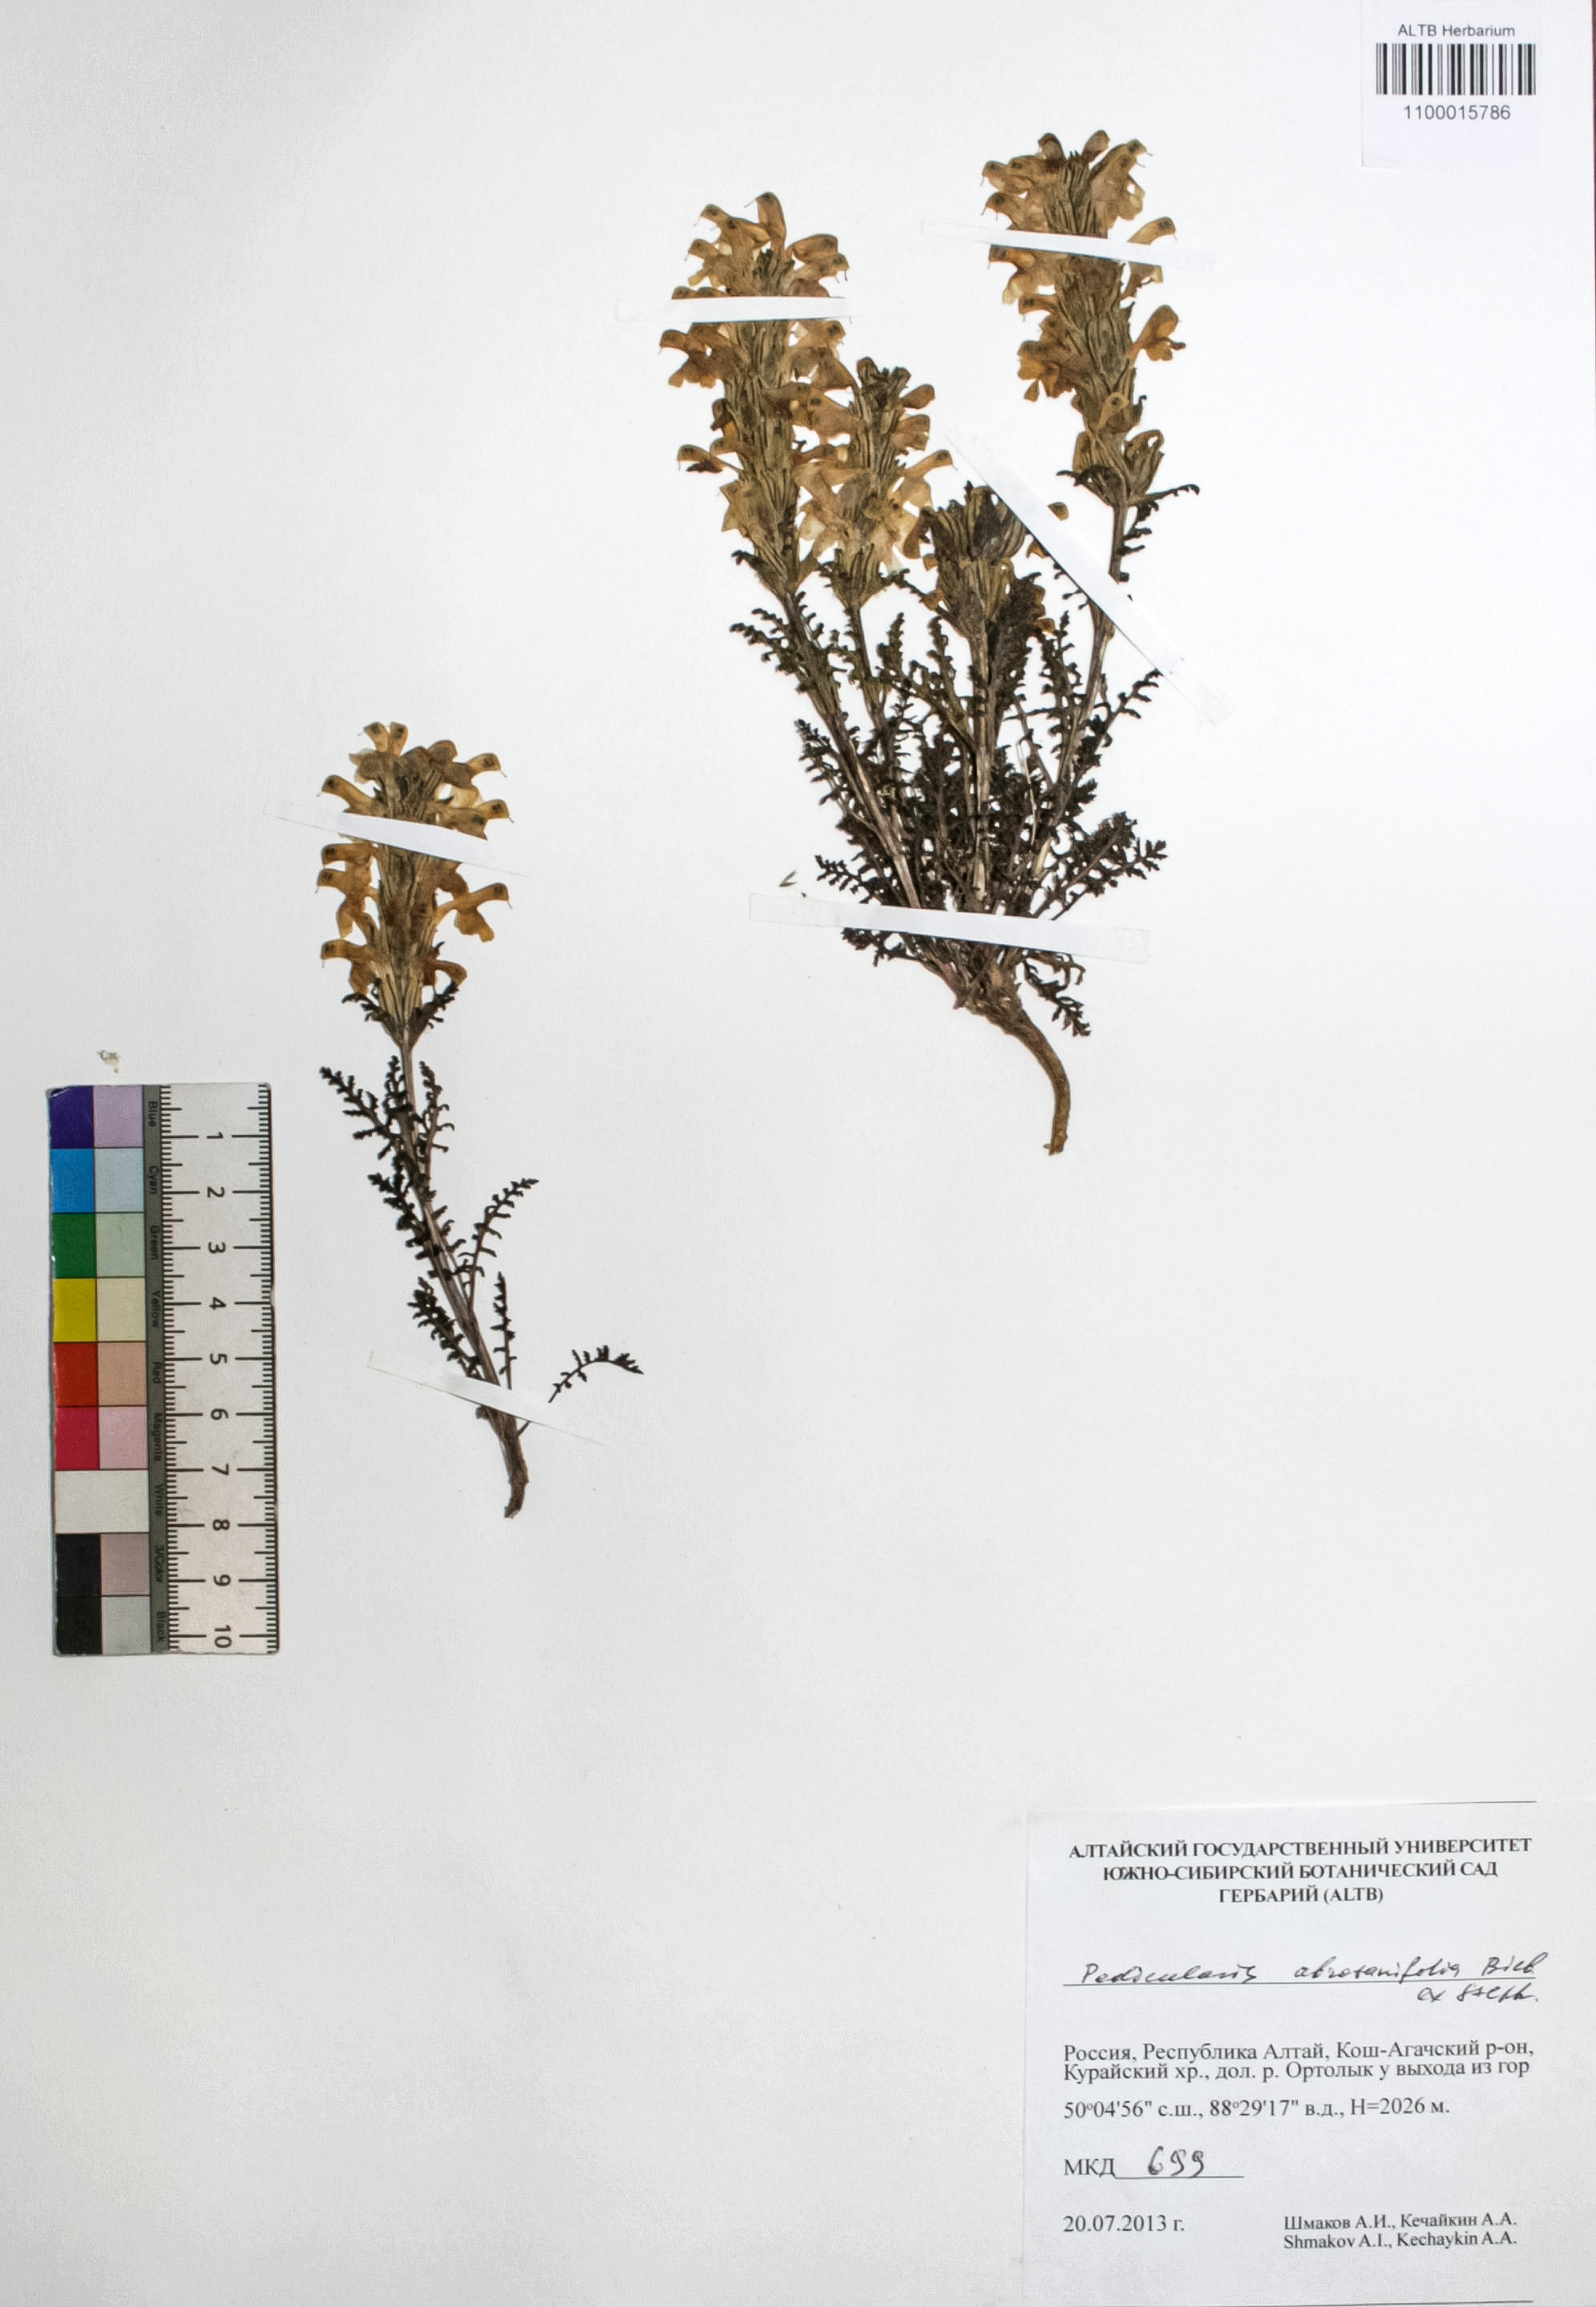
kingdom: Plantae
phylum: Tracheophyta
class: Magnoliopsida
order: Lamiales
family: Orobanchaceae
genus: Pedicularis
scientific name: Pedicularis abrotanifolia
